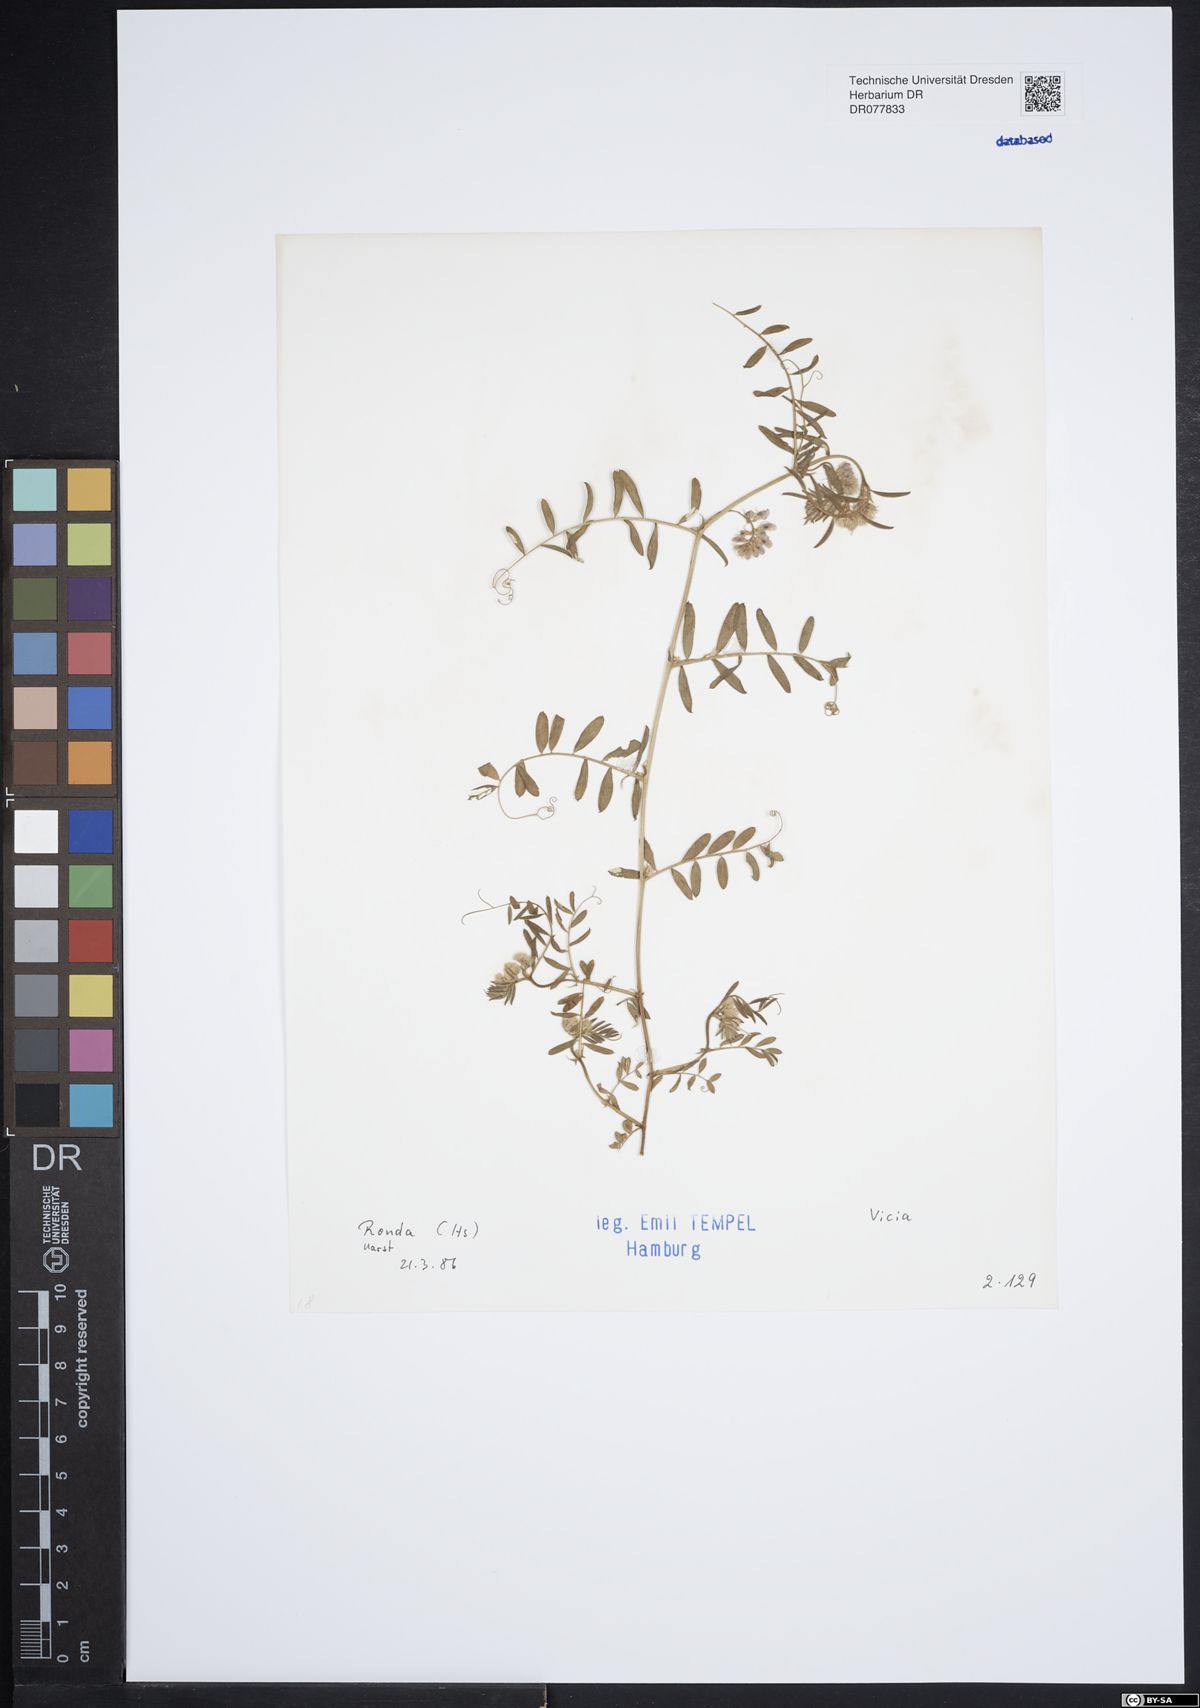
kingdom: Plantae
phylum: Tracheophyta
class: Magnoliopsida
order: Fabales
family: Fabaceae
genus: Vicia
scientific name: Vicia
